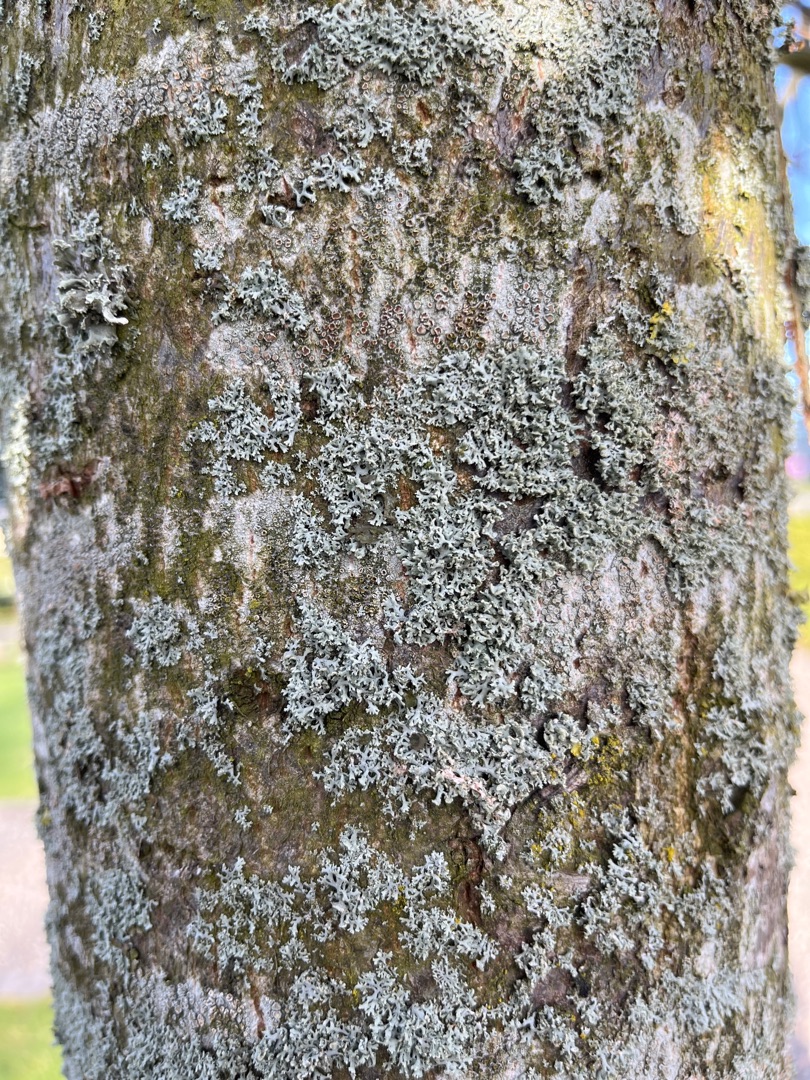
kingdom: Fungi
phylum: Ascomycota
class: Lecanoromycetes
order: Caliciales
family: Physciaceae
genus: Physcia
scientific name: Physcia tenella
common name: Spæd rosetlav
